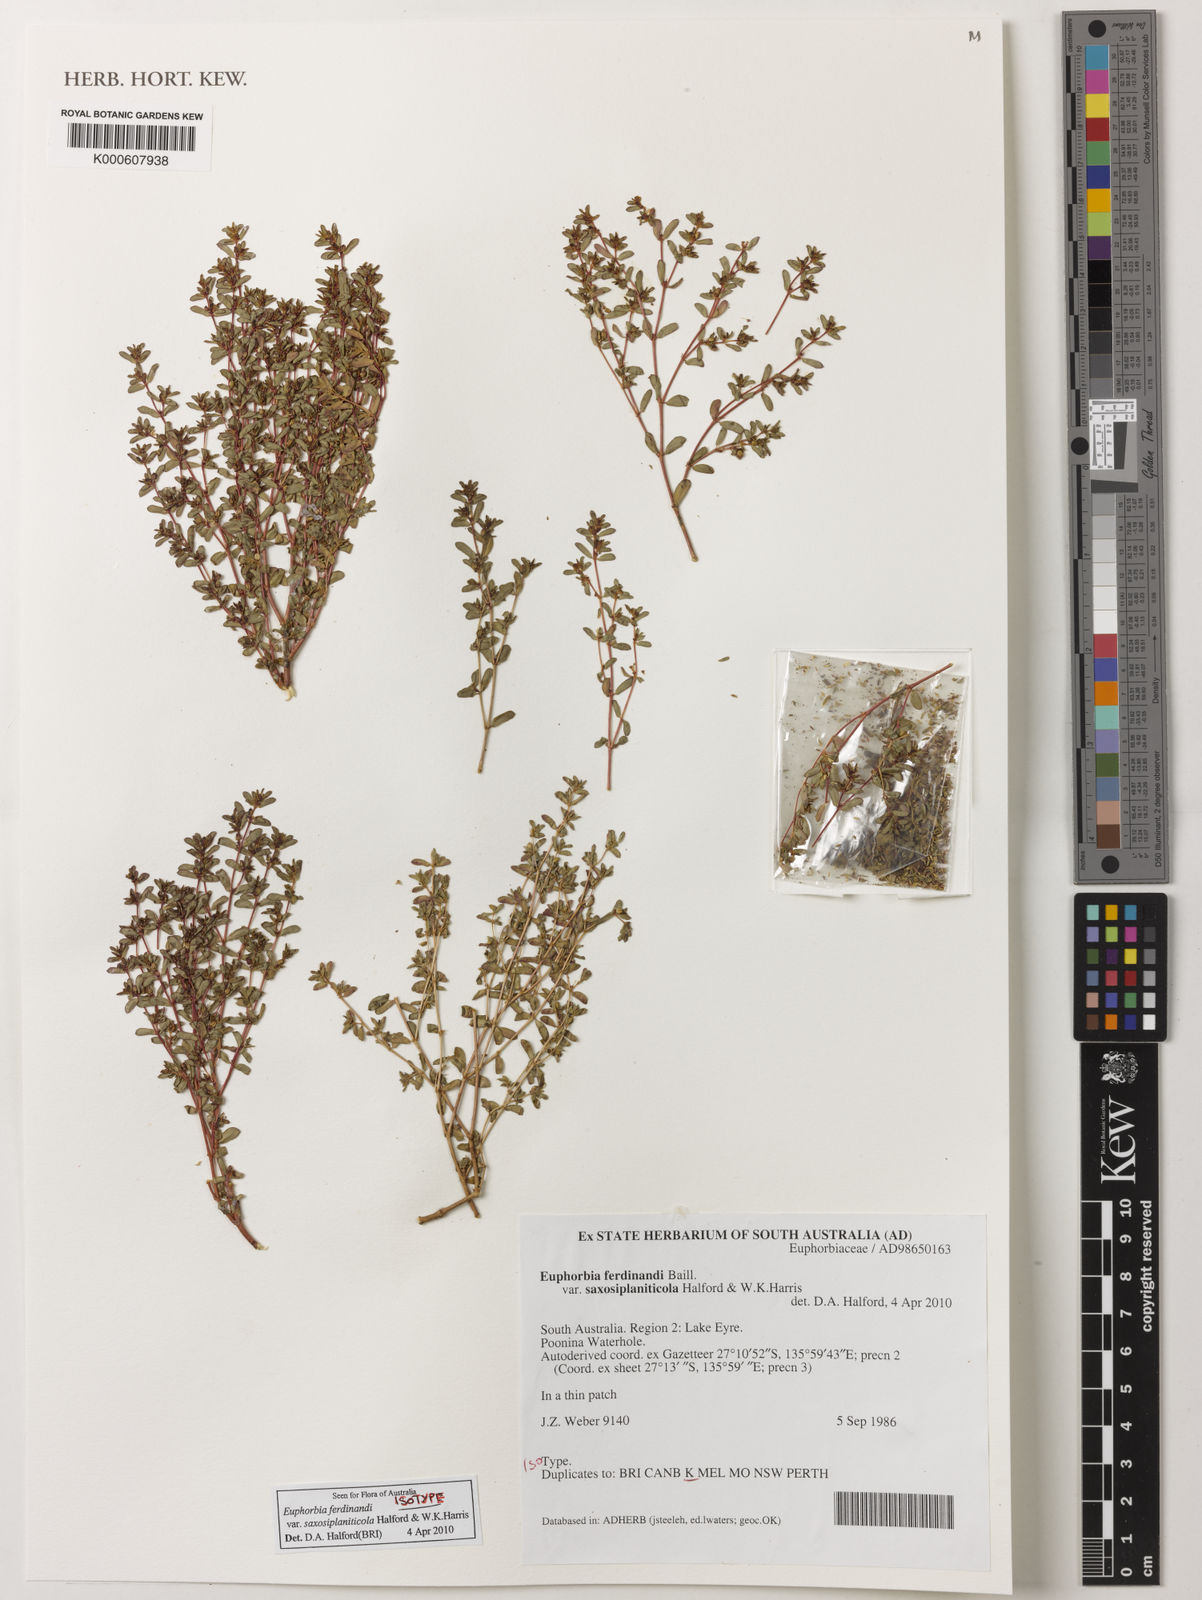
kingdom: Plantae
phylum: Tracheophyta
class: Magnoliopsida
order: Malpighiales
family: Euphorbiaceae
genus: Euphorbia
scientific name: Euphorbia ferdinandi
